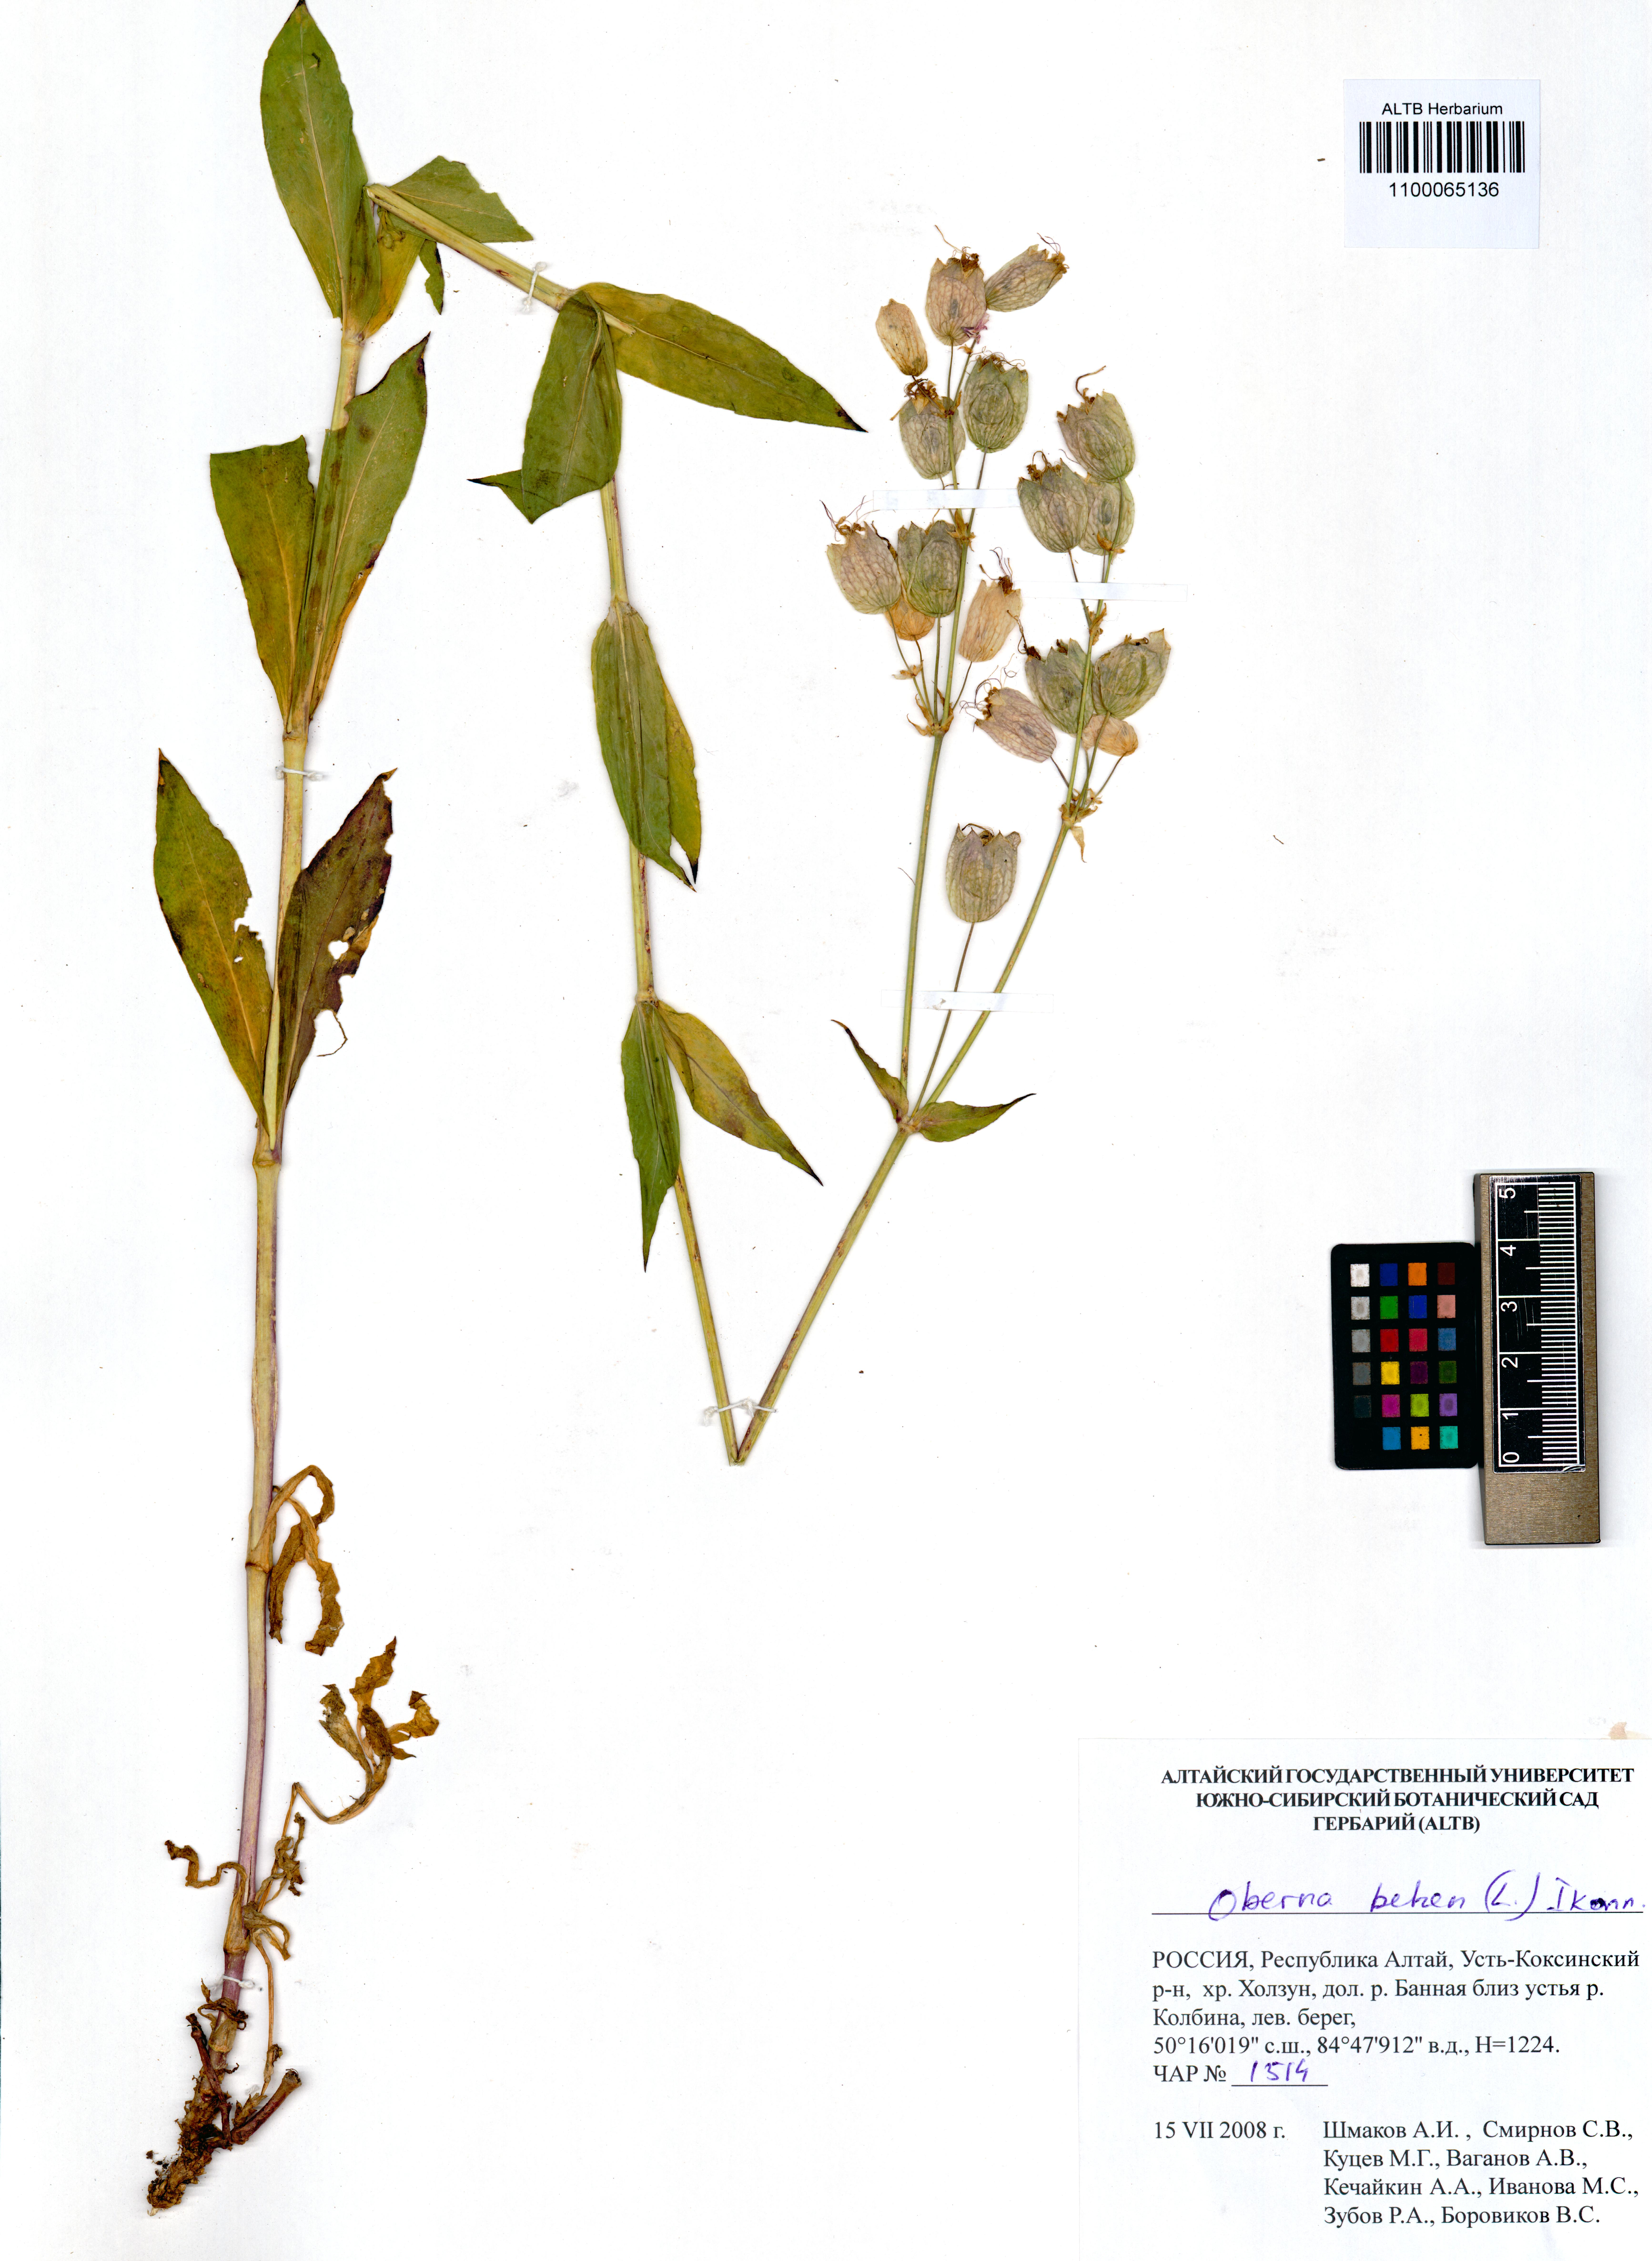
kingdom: Plantae
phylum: Tracheophyta
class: Magnoliopsida
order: Caryophyllales
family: Caryophyllaceae
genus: Silene
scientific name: Silene behen
